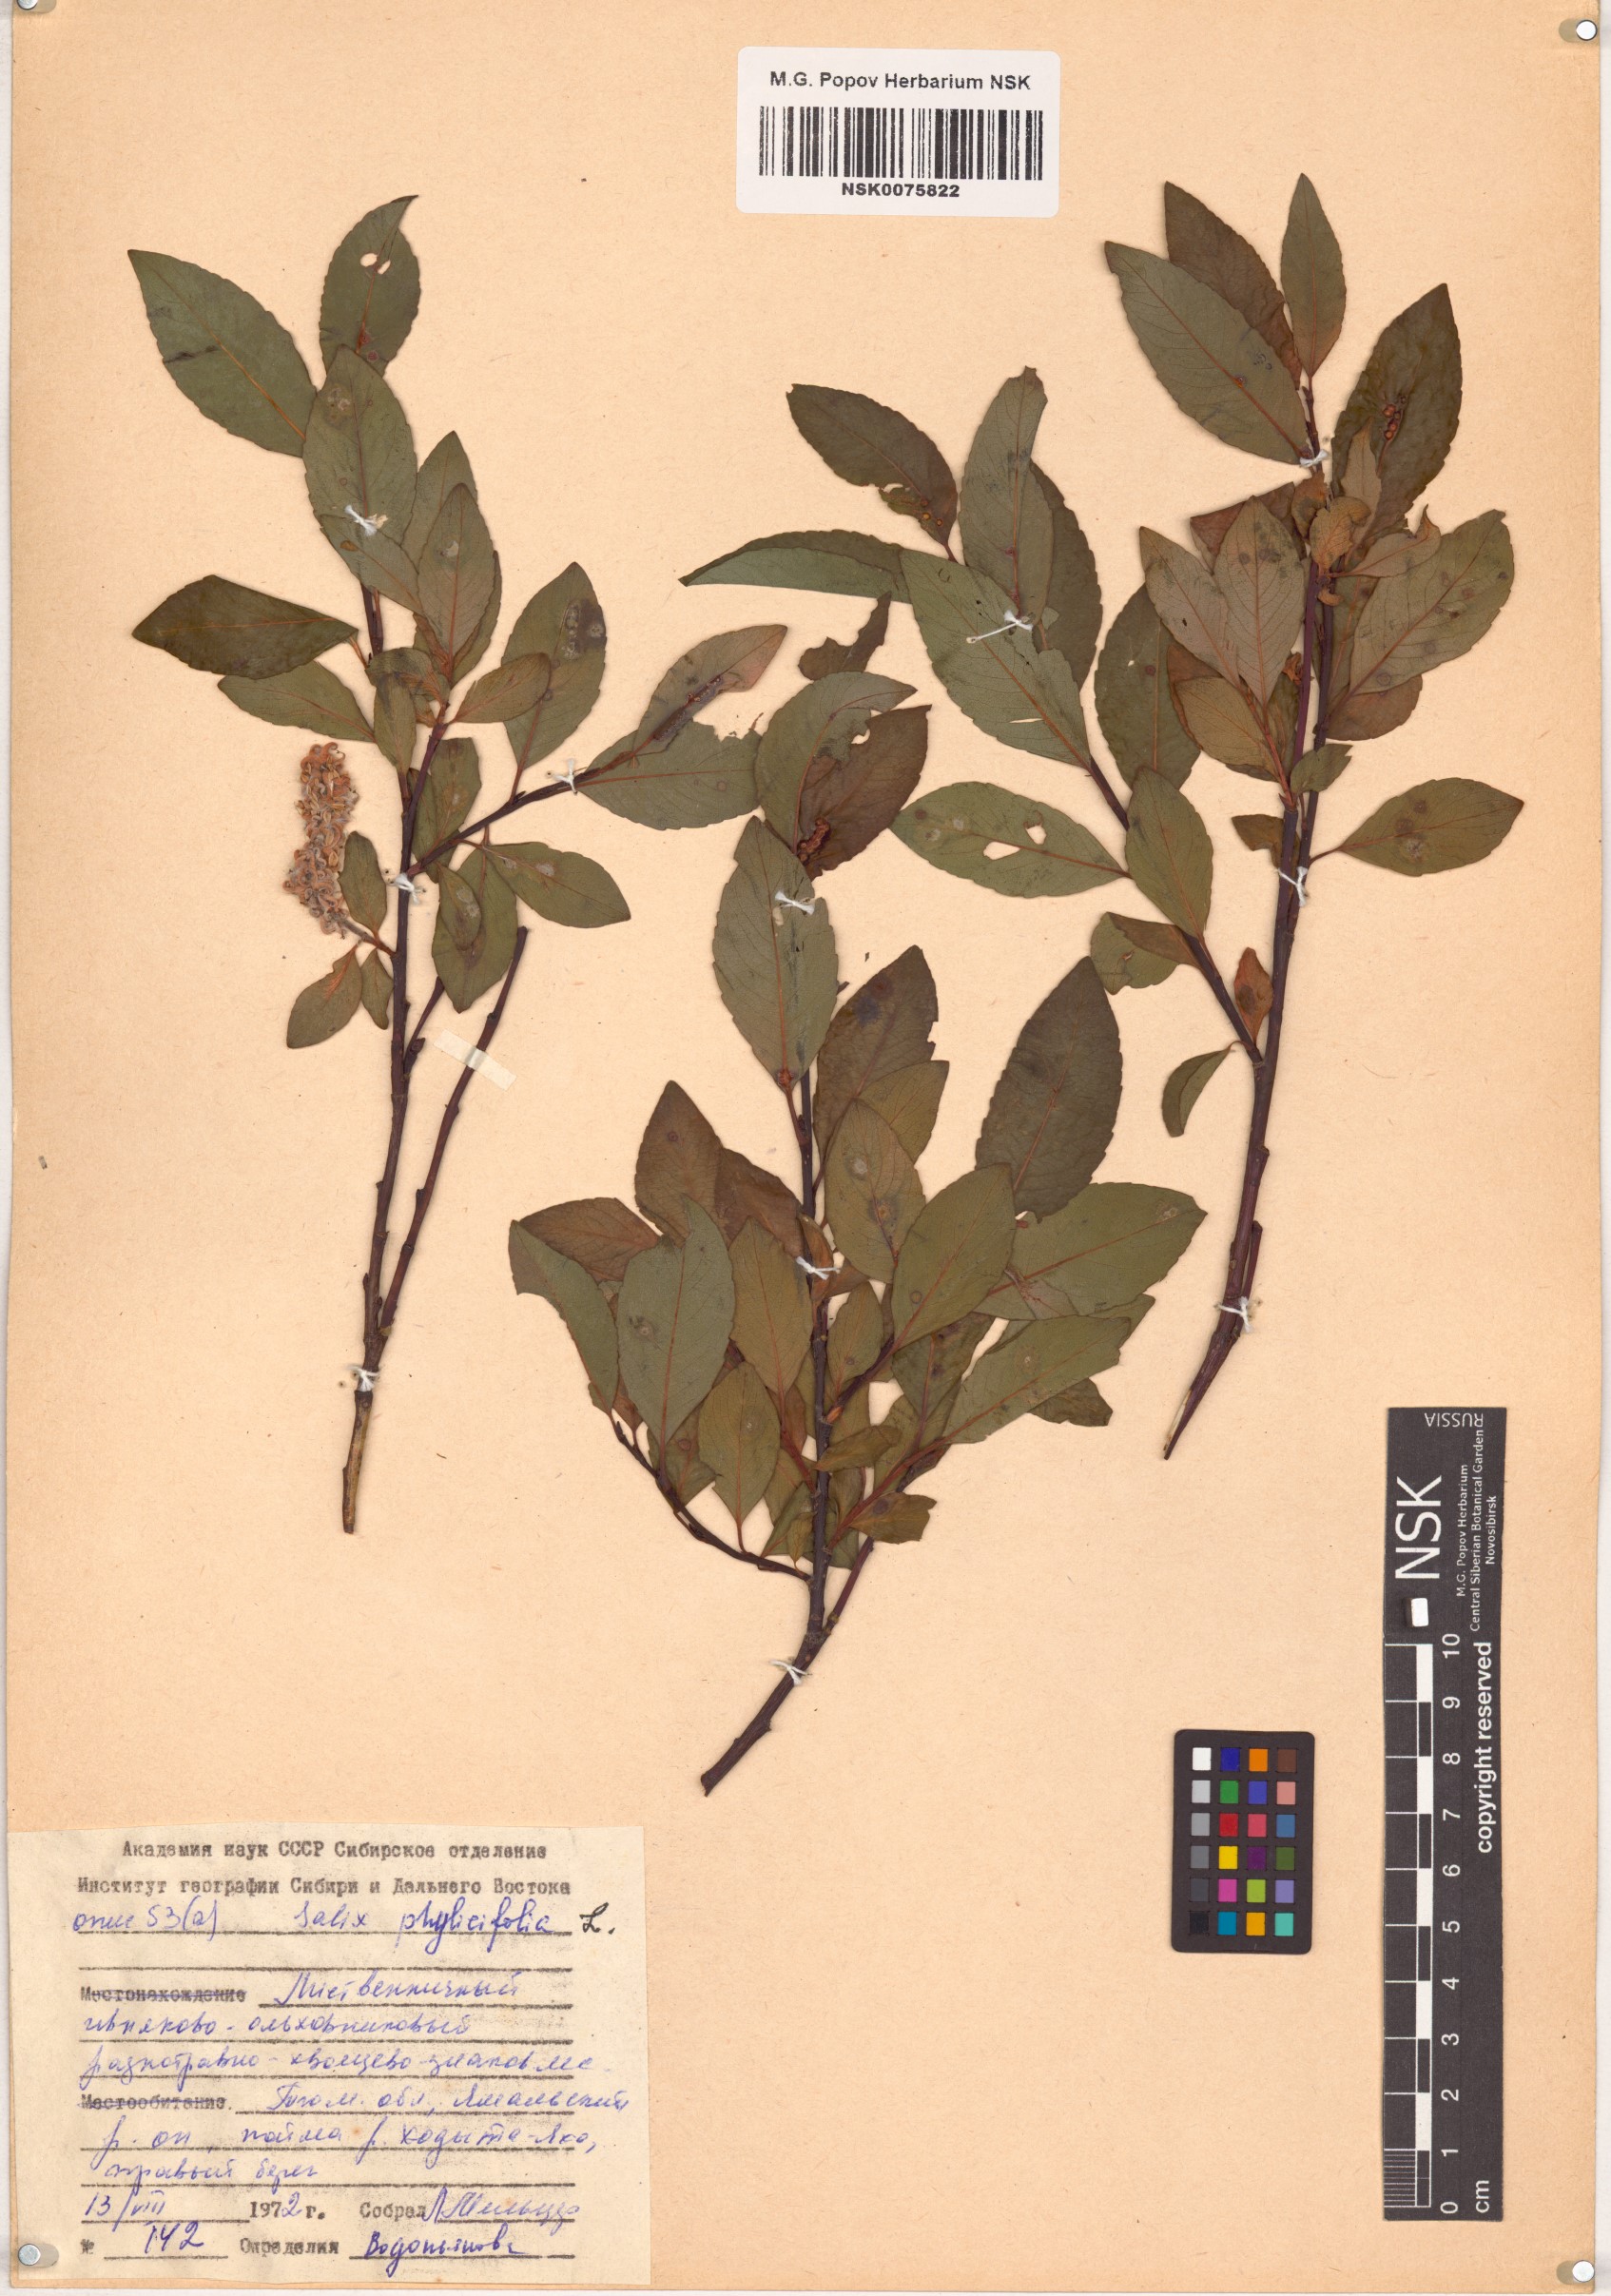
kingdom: Plantae
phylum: Tracheophyta
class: Magnoliopsida
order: Malpighiales
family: Salicaceae
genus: Salix
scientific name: Salix phylicifolia
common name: Tea-leaved willow
